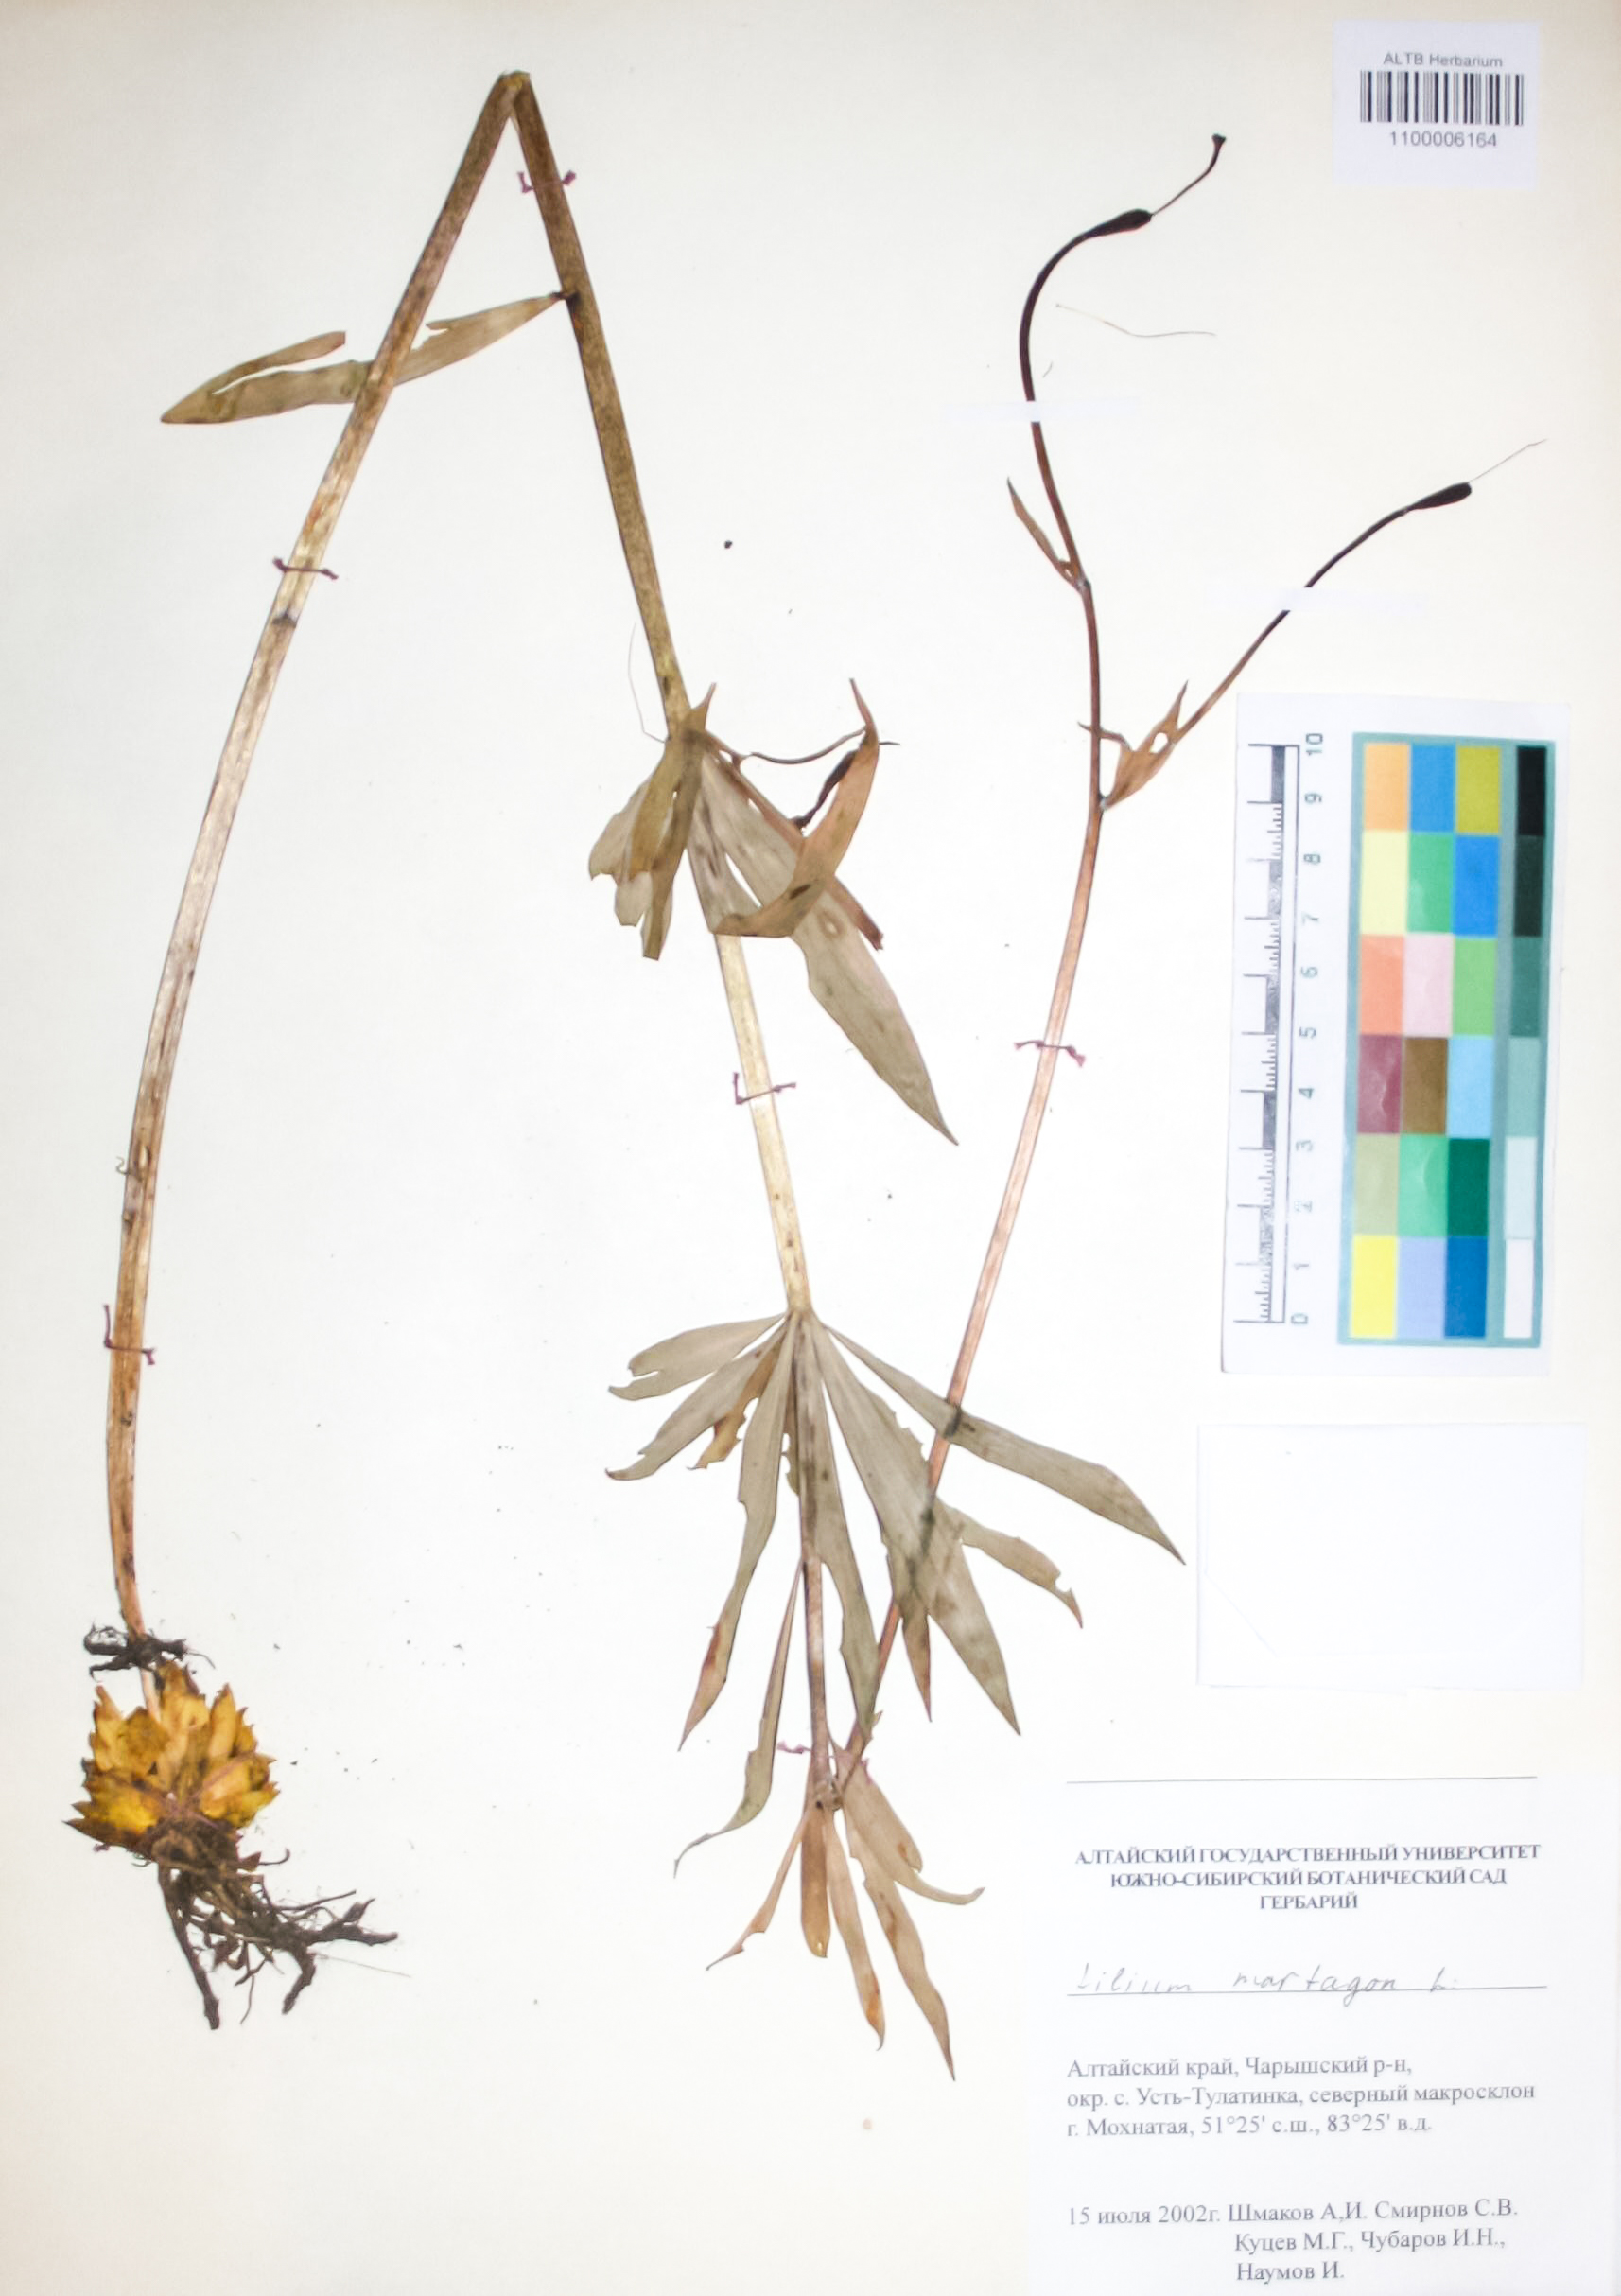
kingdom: Plantae
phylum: Tracheophyta
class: Liliopsida
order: Liliales
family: Liliaceae
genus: Lilium
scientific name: Lilium martagon
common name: Martagon lily
